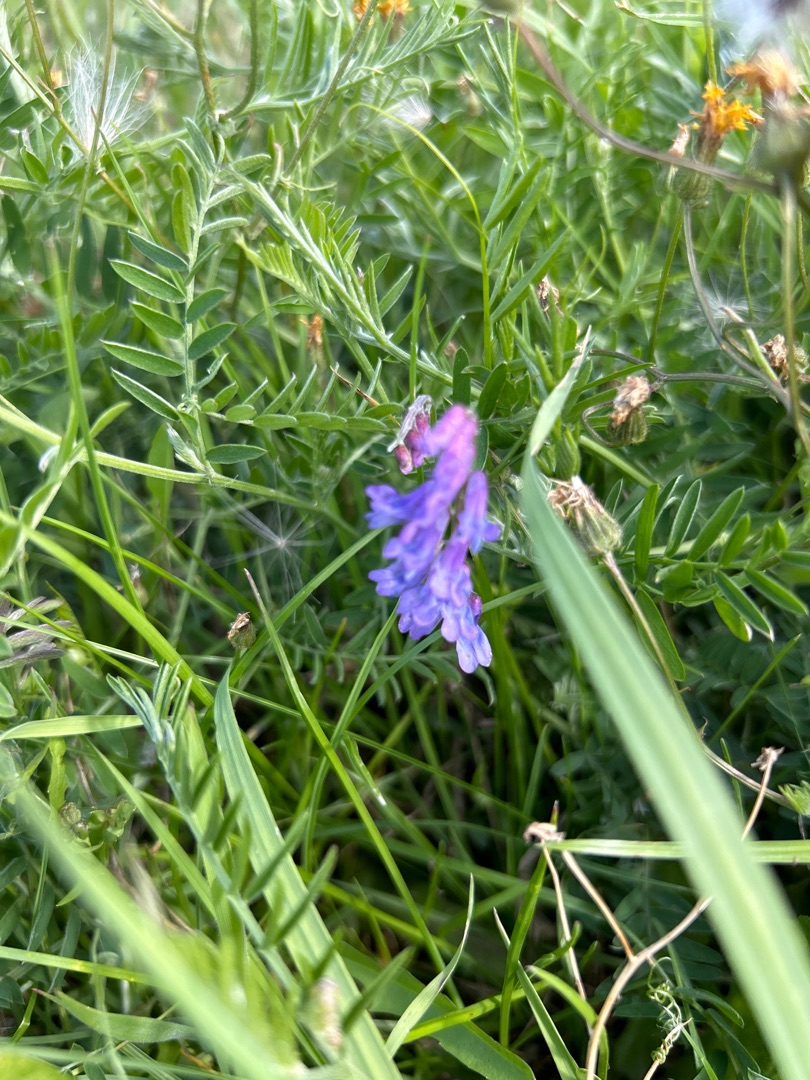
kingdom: Plantae
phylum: Tracheophyta
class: Magnoliopsida
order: Fabales
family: Fabaceae
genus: Vicia
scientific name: Vicia cracca
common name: Muse-vikke
